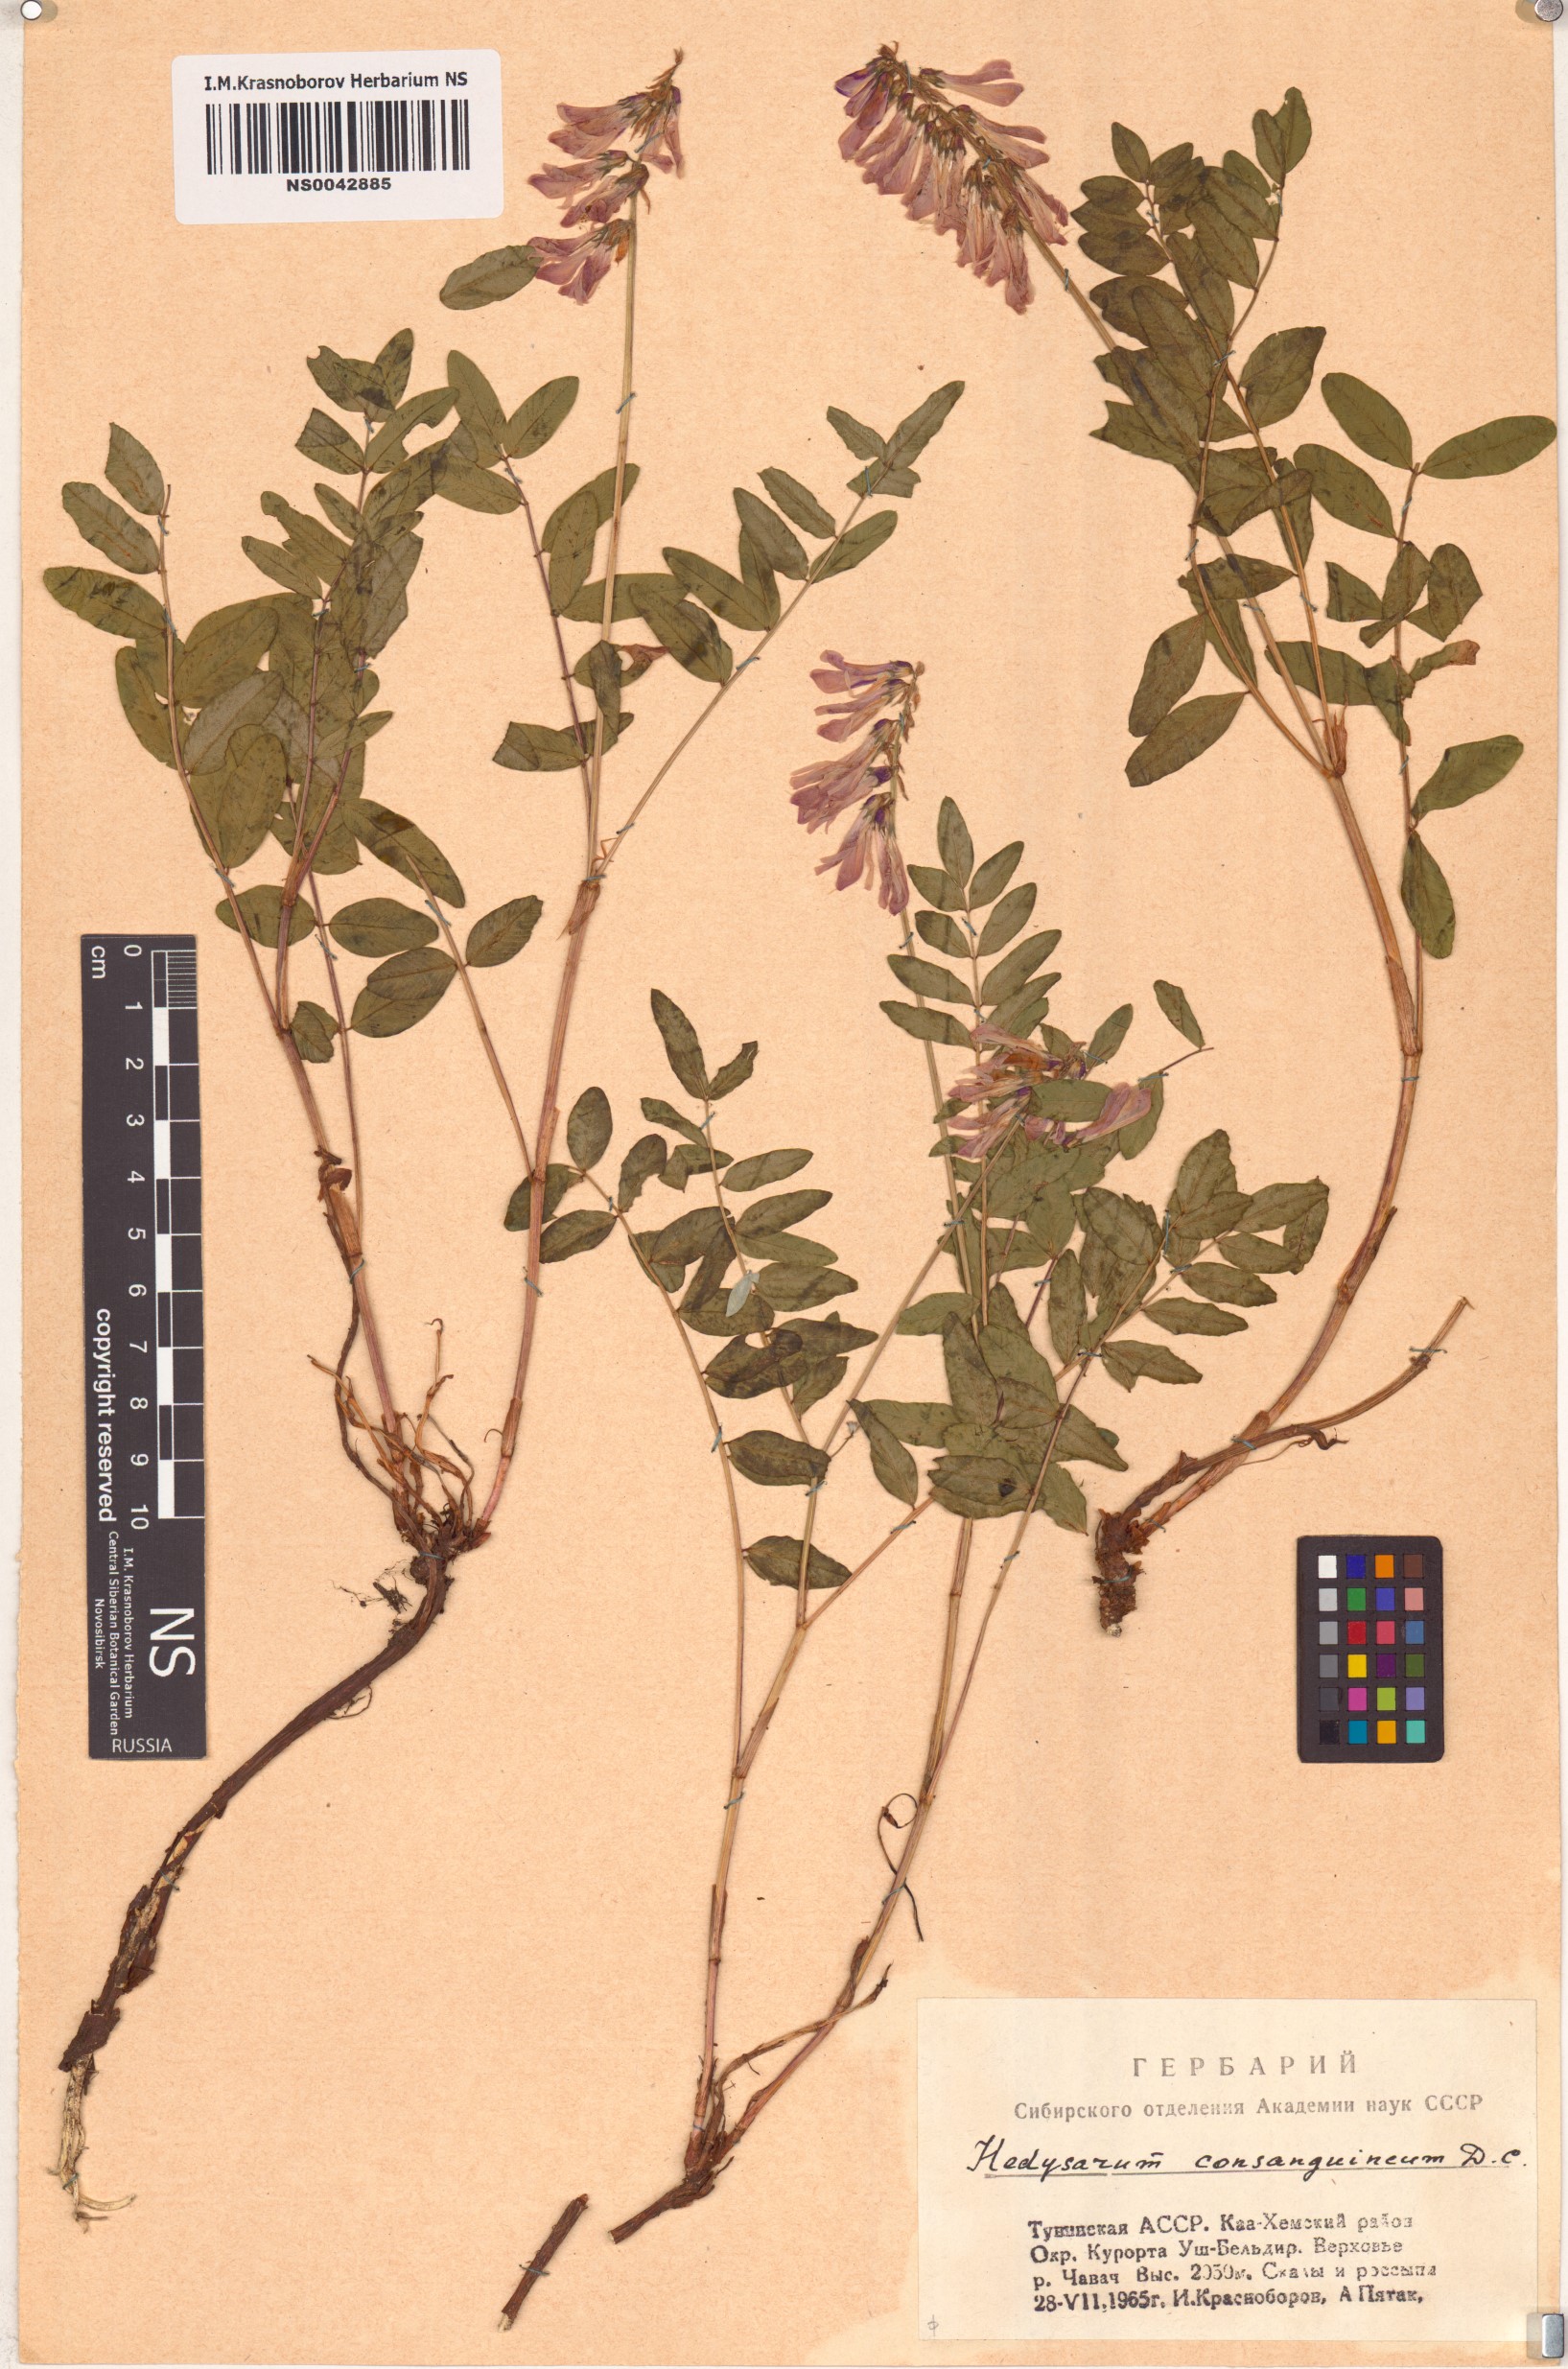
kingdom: Plantae
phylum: Tracheophyta
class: Magnoliopsida
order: Fabales
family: Fabaceae
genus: Hedysarum
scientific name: Hedysarum consanguineum
